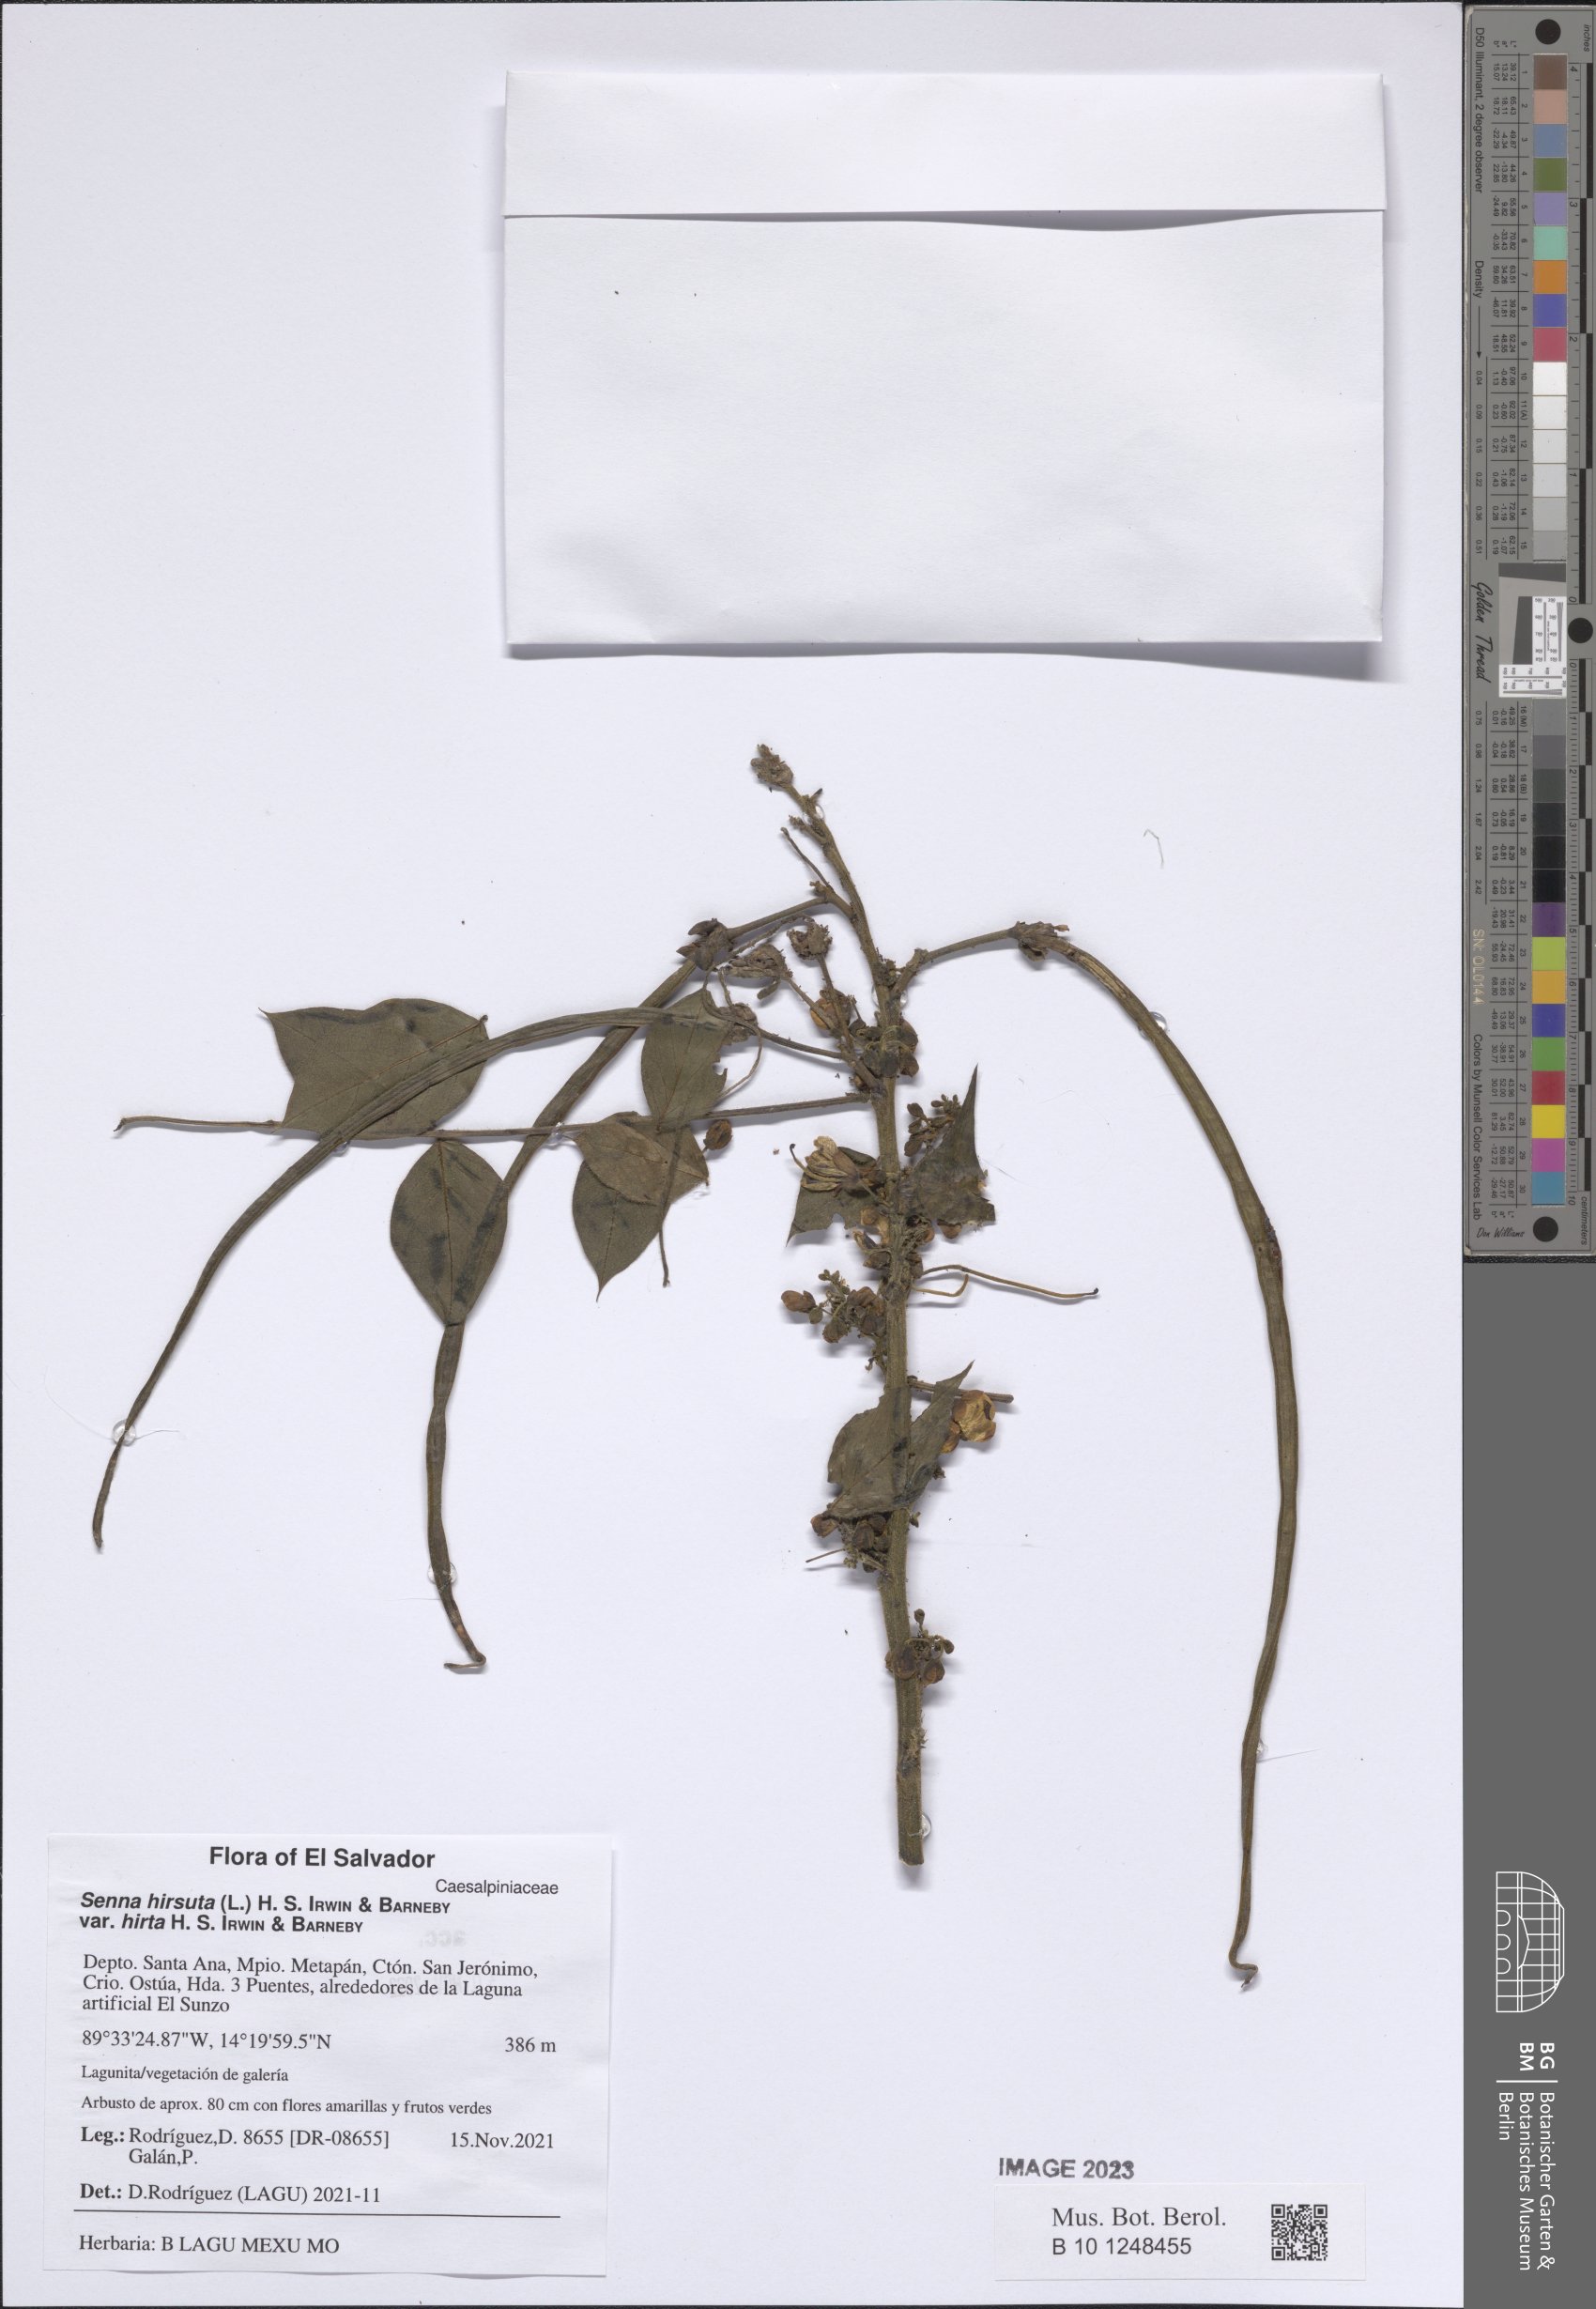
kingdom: Plantae
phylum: Tracheophyta
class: Magnoliopsida
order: Fabales
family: Fabaceae
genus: Senna
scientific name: Senna hirsuta
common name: Woolly senna
